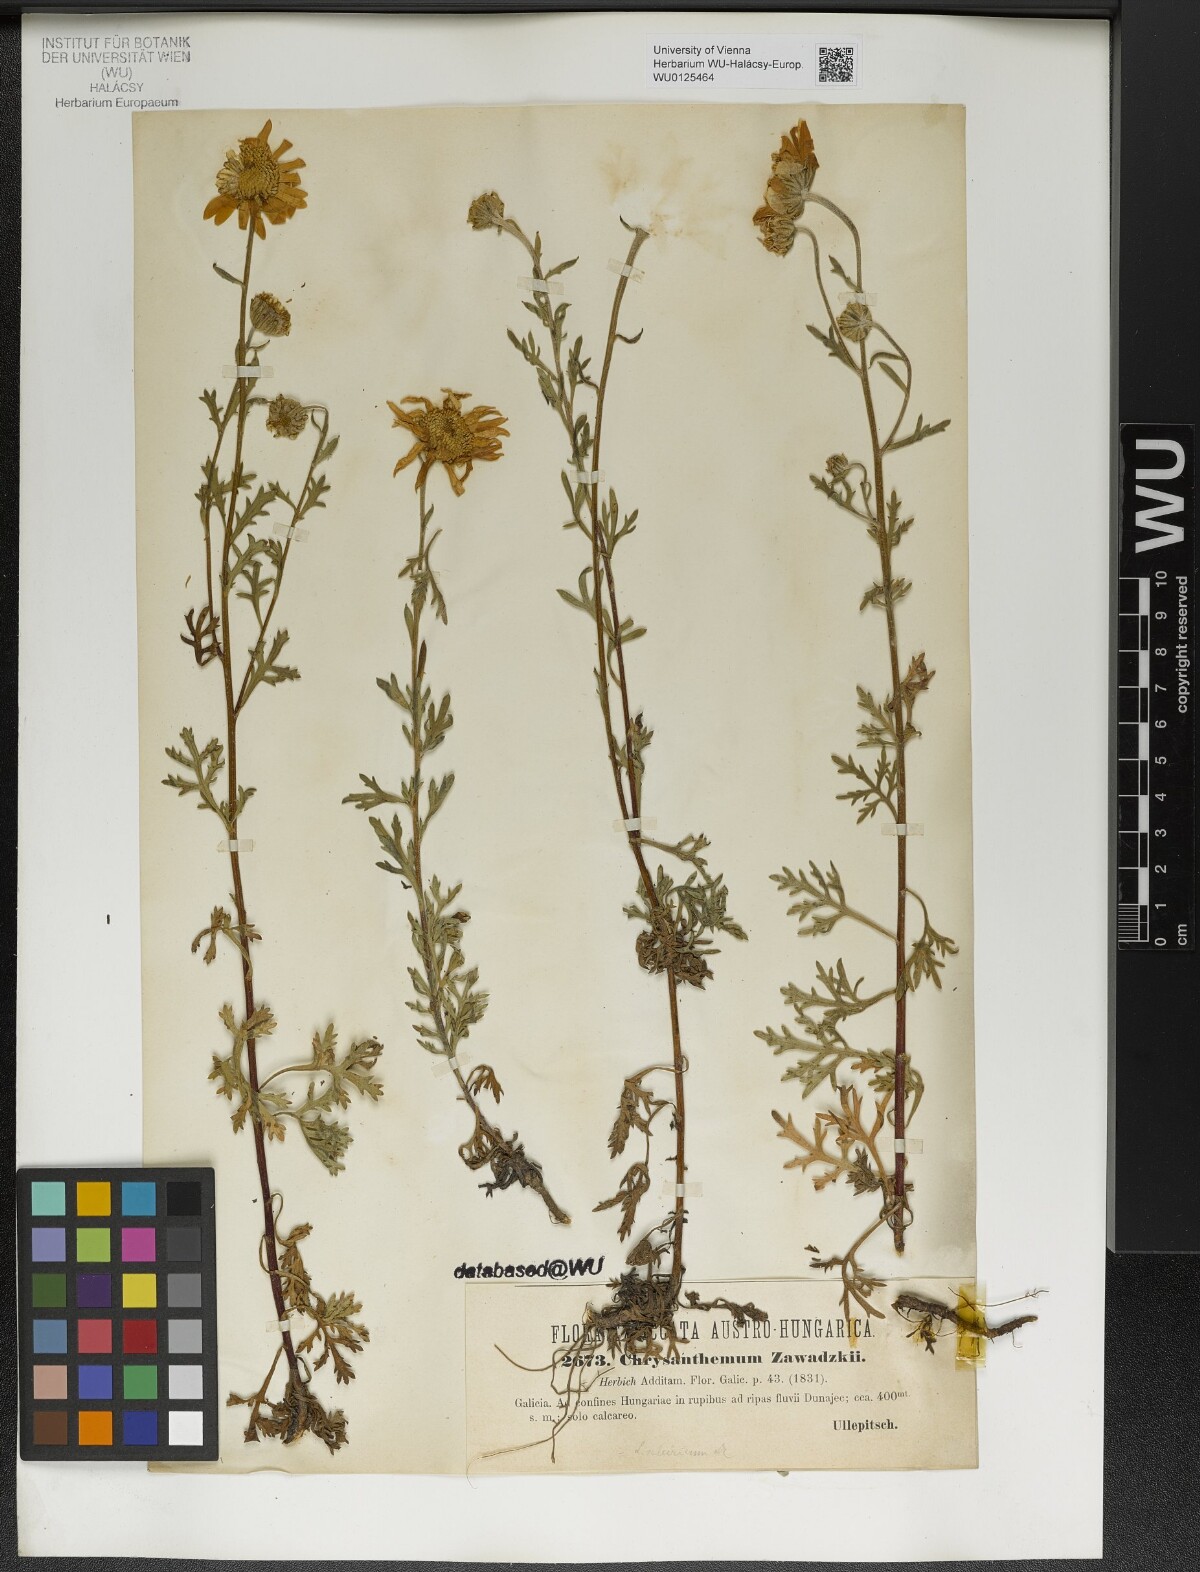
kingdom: Plantae
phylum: Tracheophyta
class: Magnoliopsida
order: Asterales
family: Asteraceae
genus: Chrysanthemum
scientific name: Chrysanthemum zawadzkii
